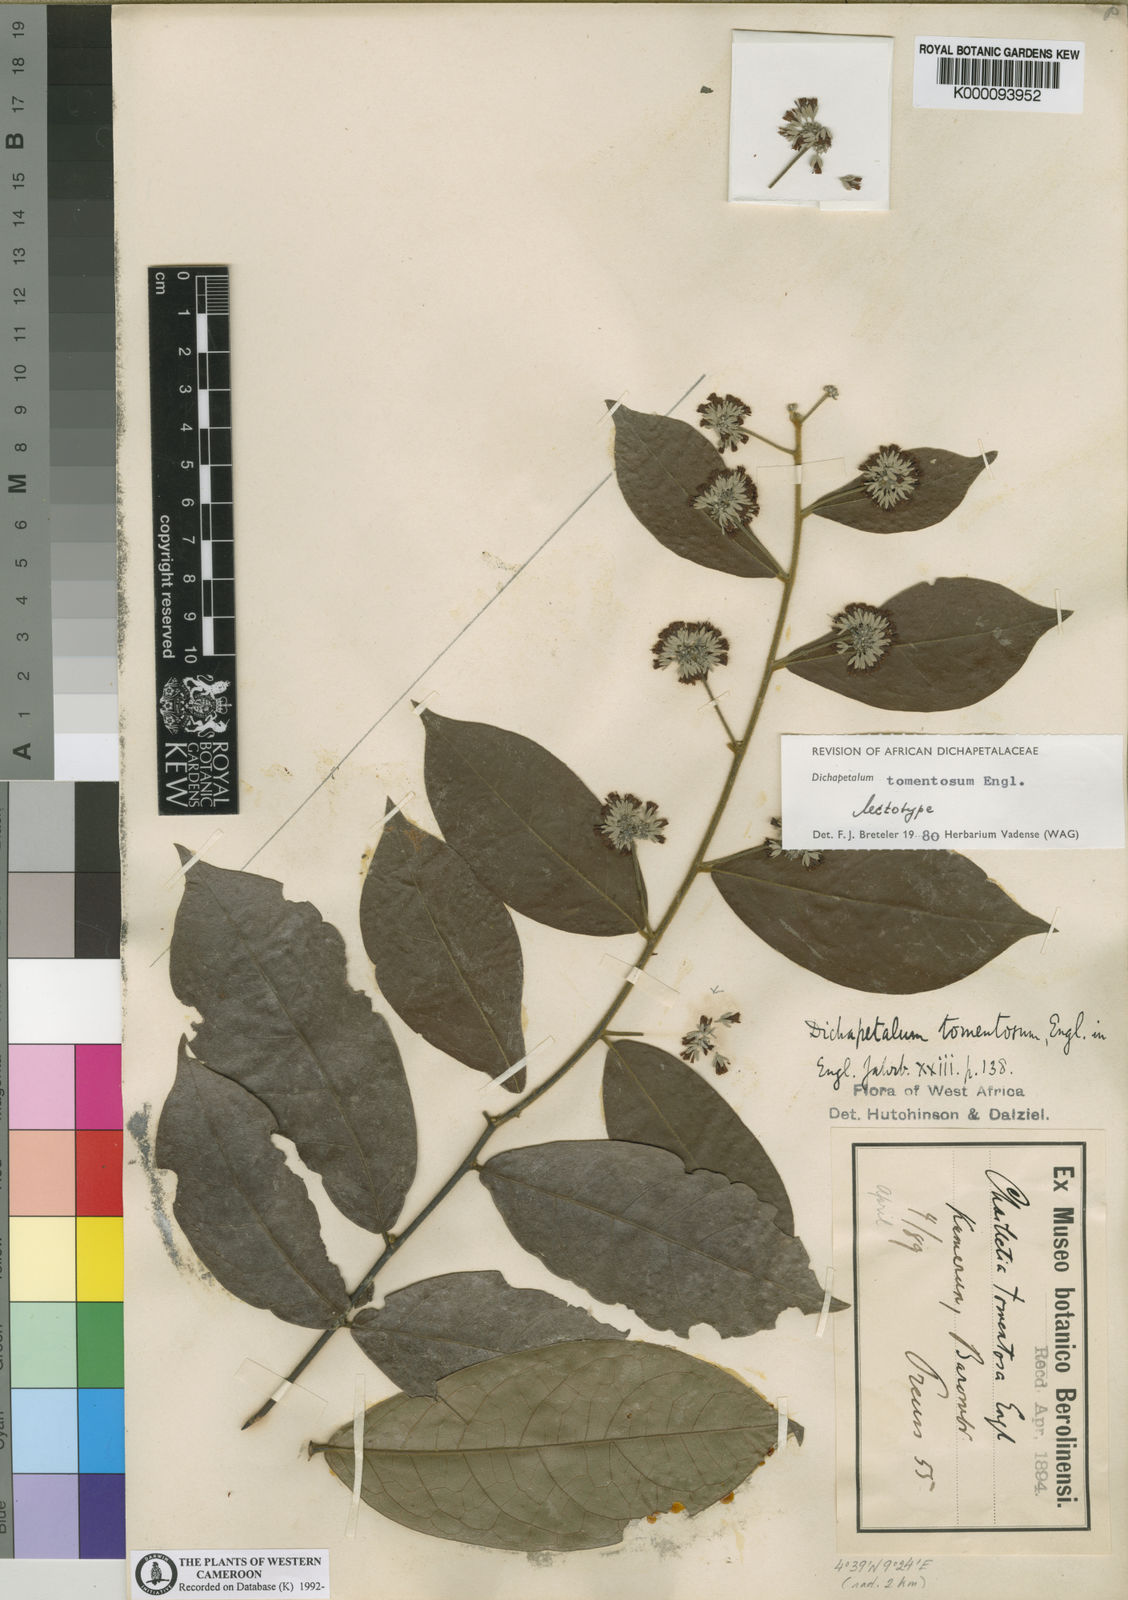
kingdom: Plantae
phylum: Tracheophyta
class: Magnoliopsida
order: Malpighiales
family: Dichapetalaceae
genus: Dichapetalum
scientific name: Dichapetalum tomentosum
